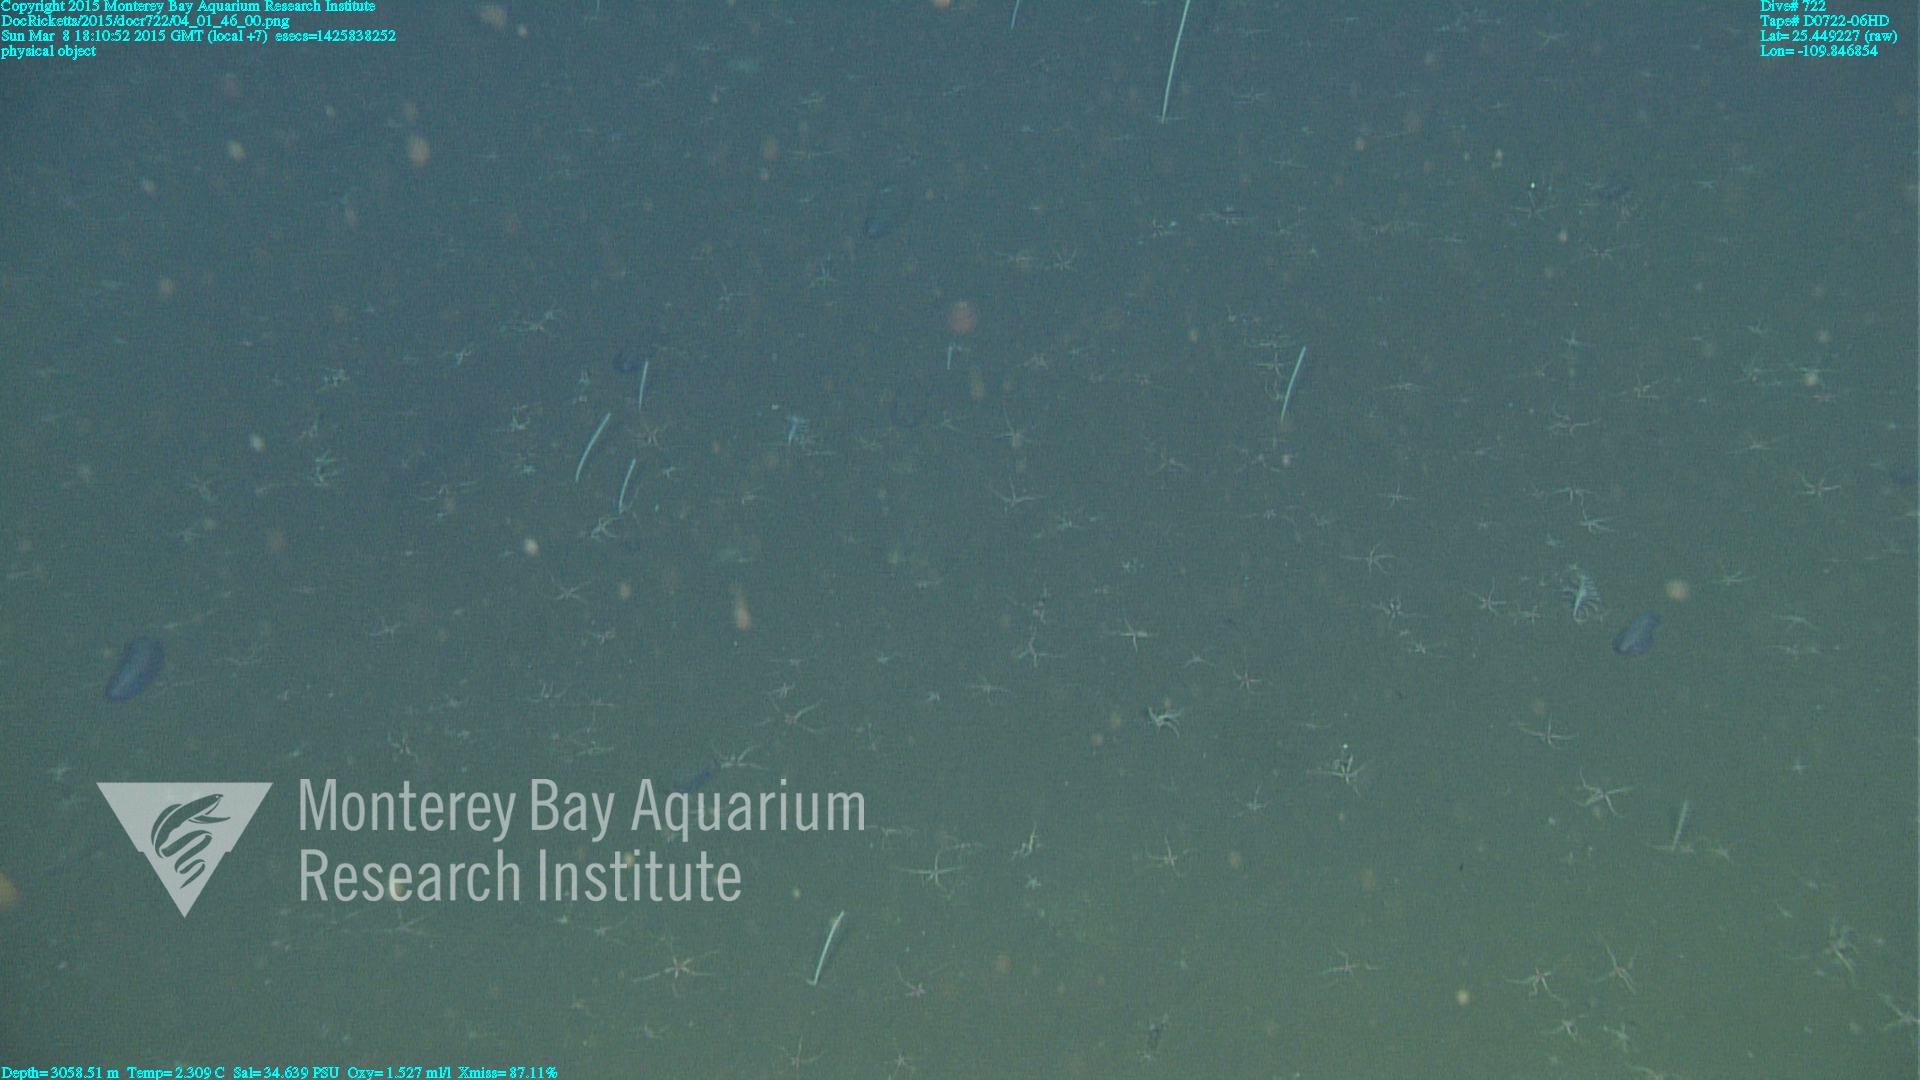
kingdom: Animalia
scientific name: Animalia
